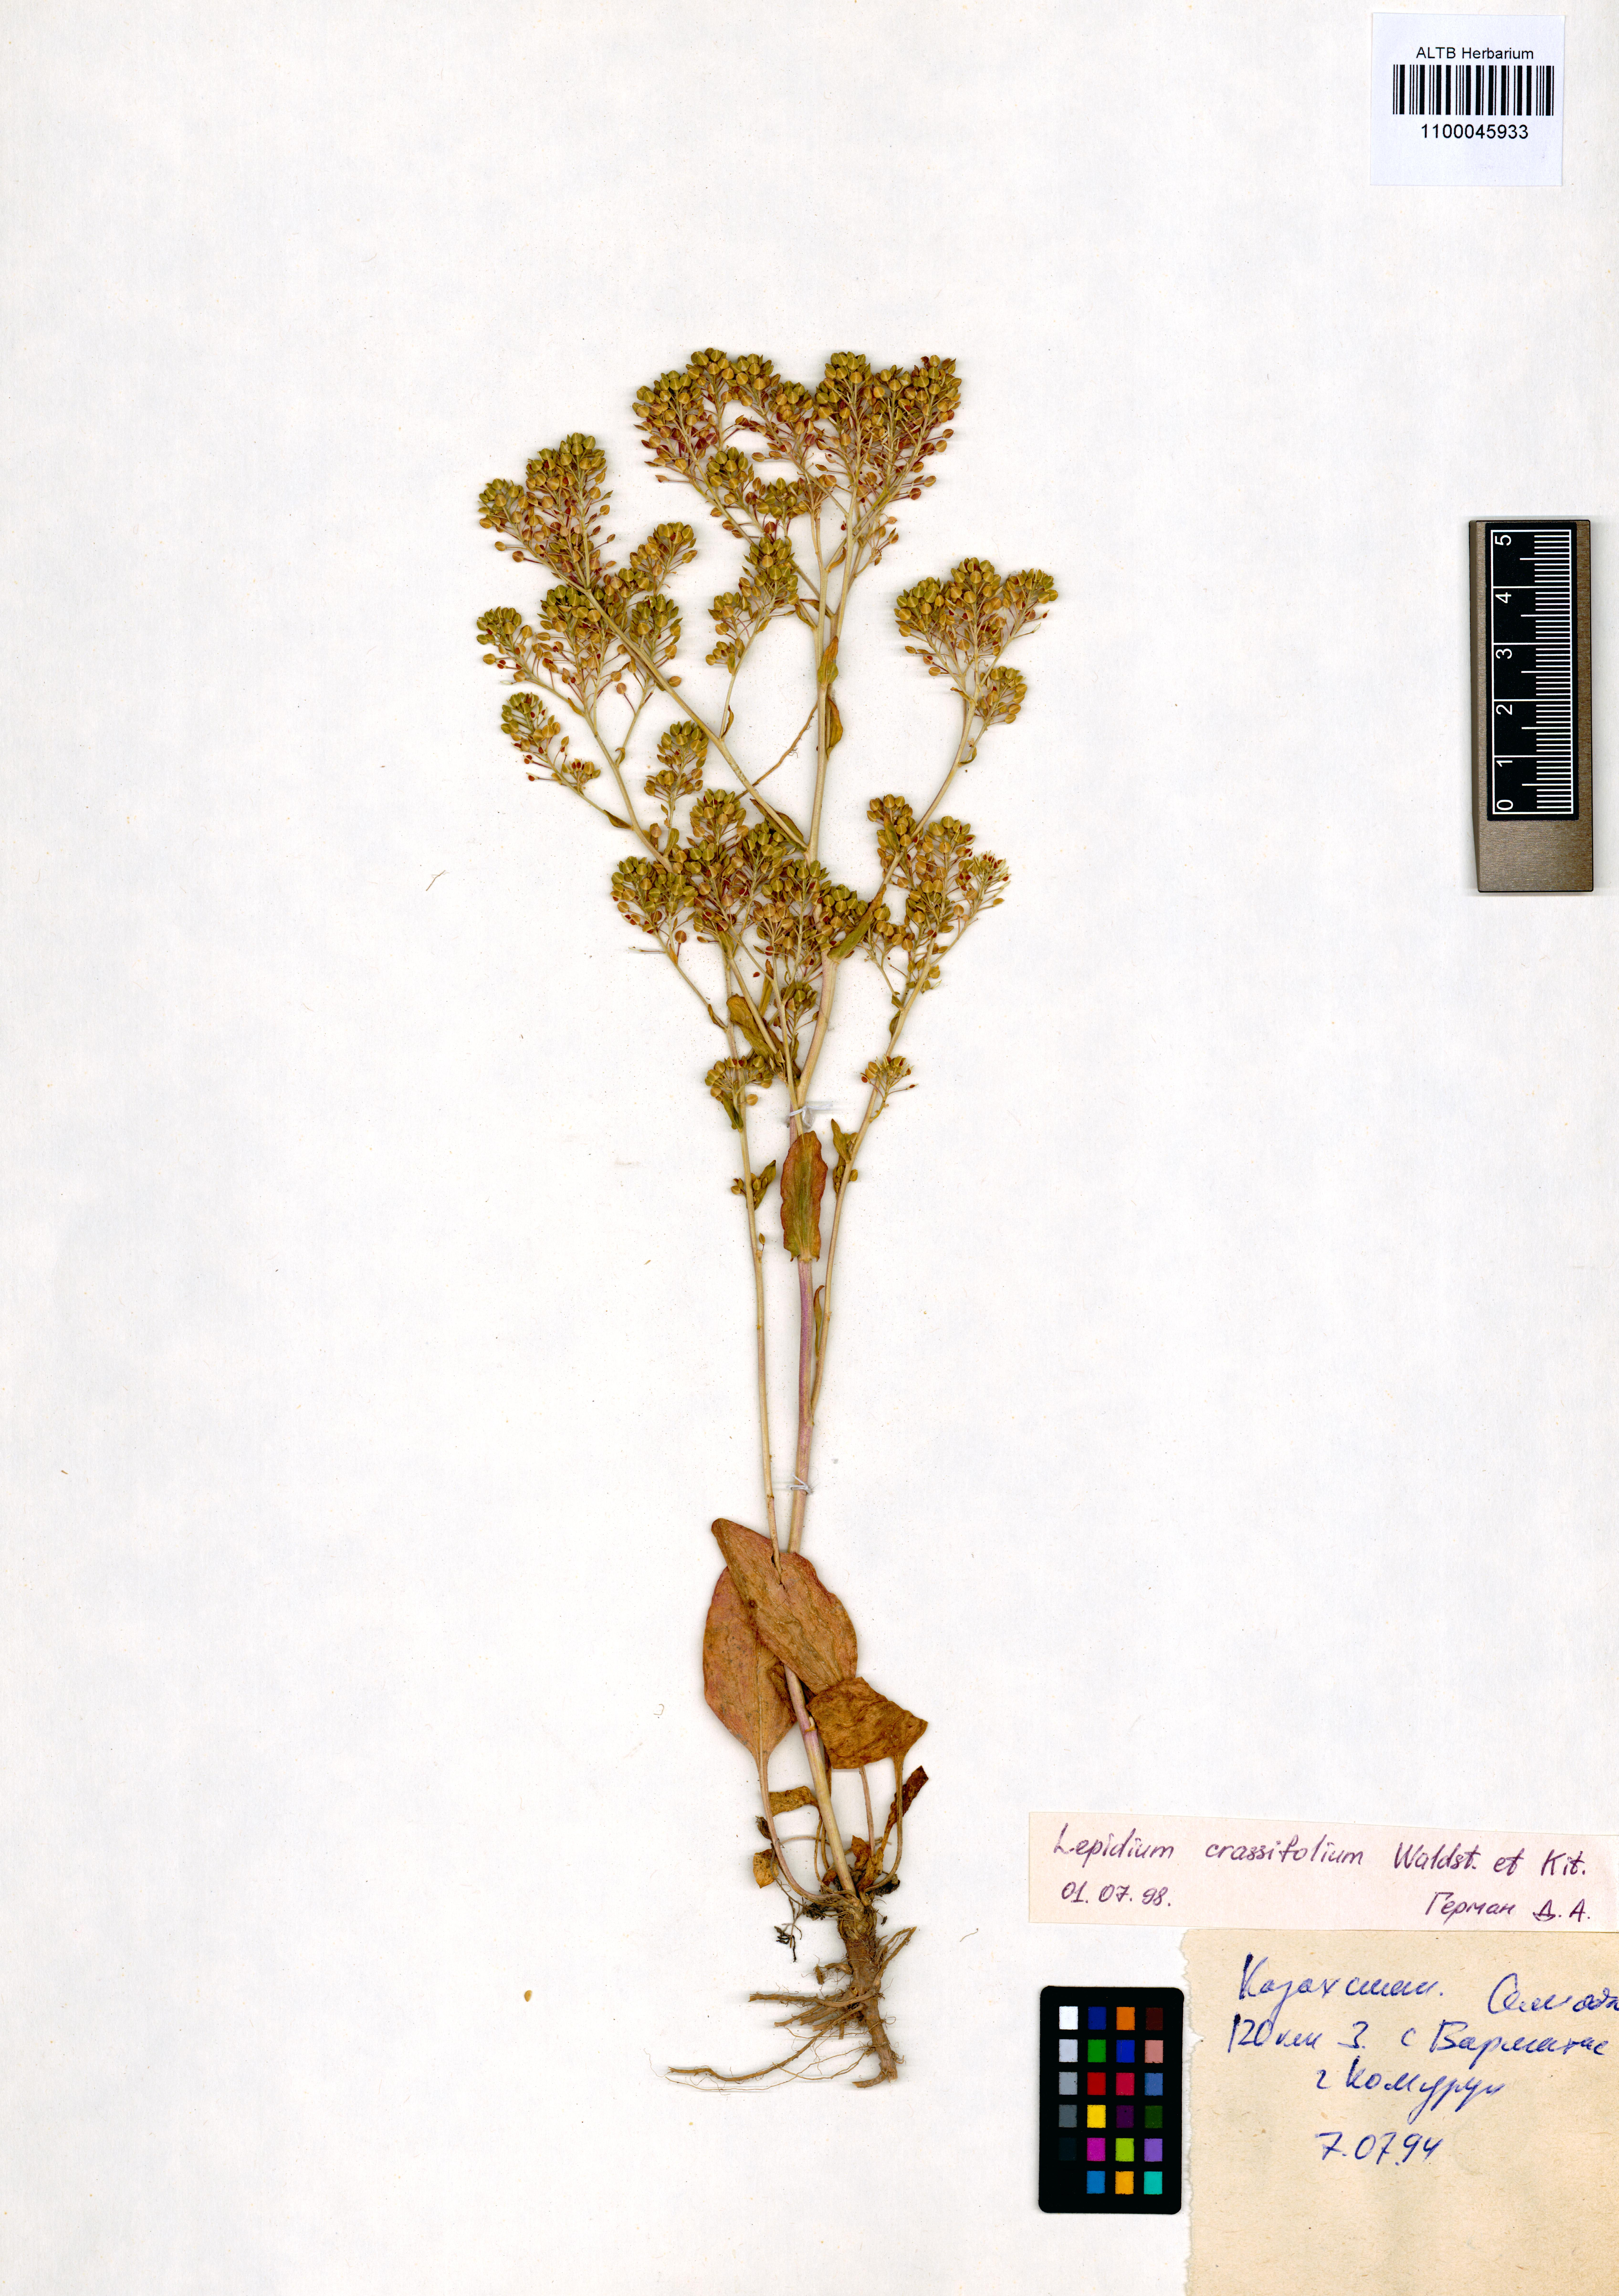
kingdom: Plantae
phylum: Tracheophyta
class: Magnoliopsida
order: Brassicales
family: Brassicaceae
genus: Lepidium
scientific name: Lepidium cartilagineum
